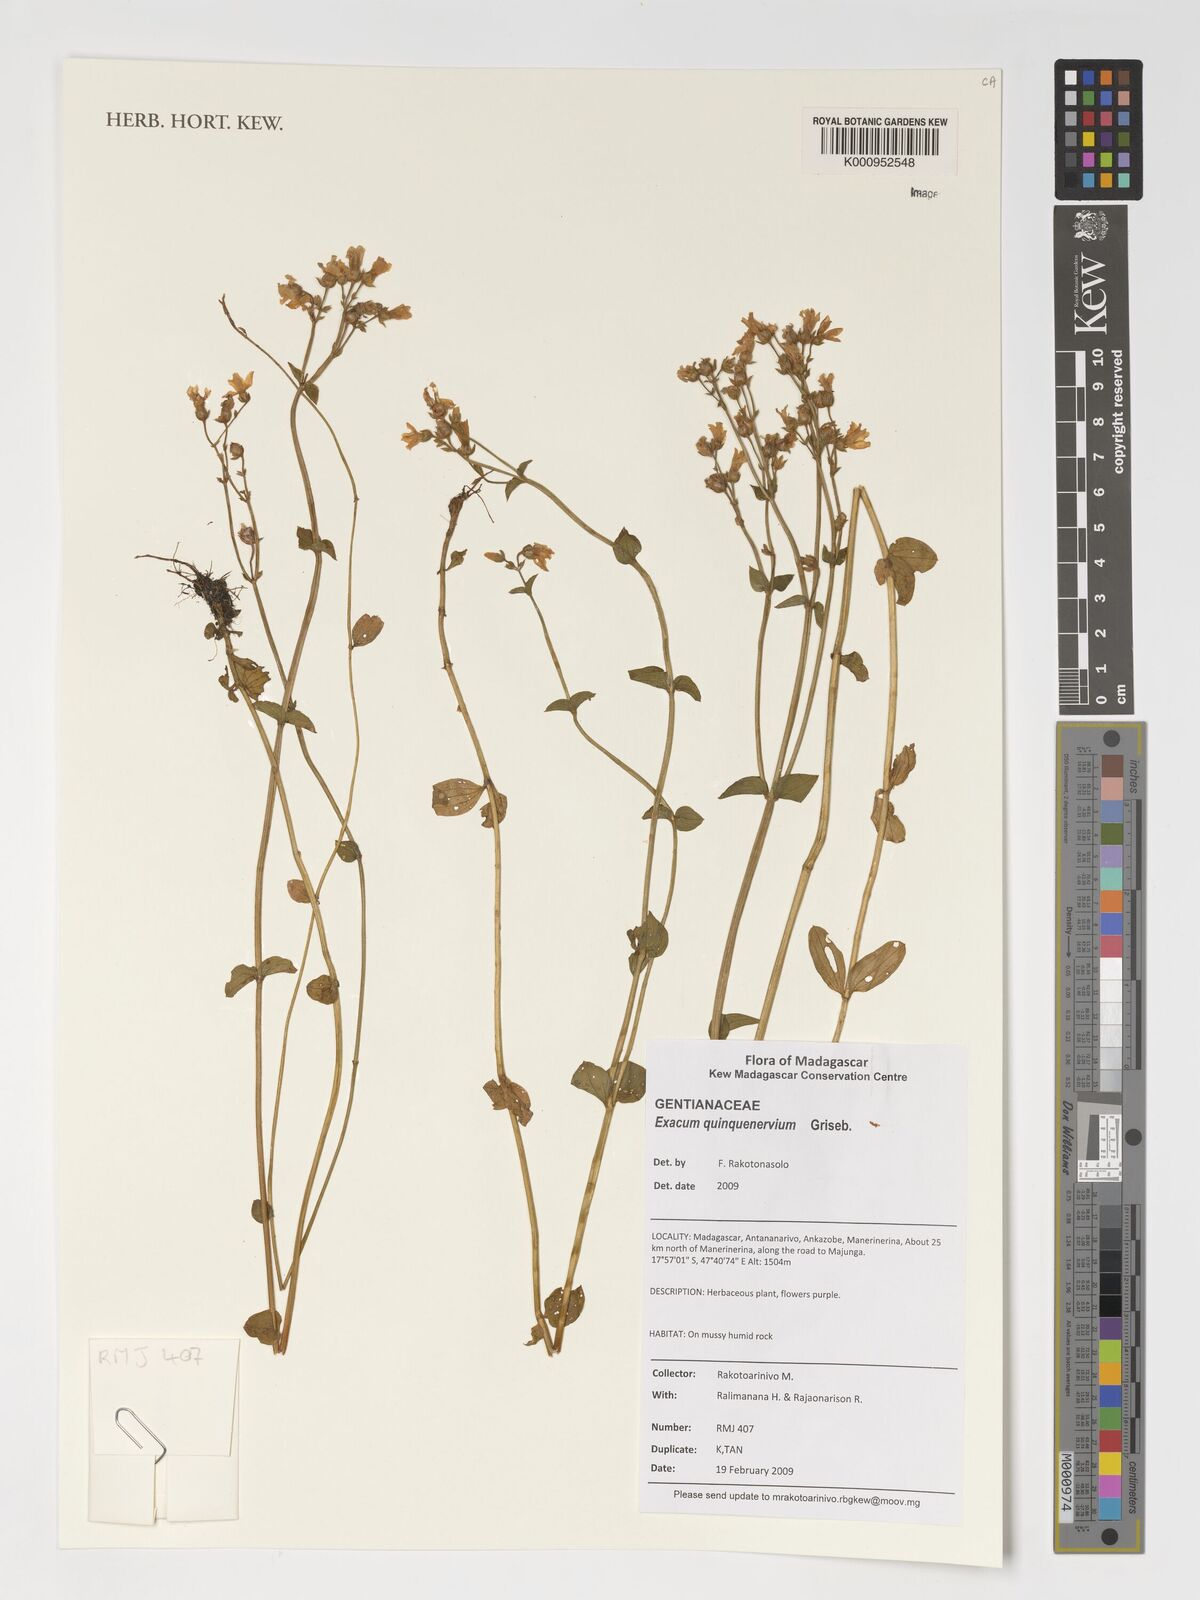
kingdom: Plantae
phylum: Tracheophyta
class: Magnoliopsida
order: Gentianales
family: Gentianaceae
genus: Exacum
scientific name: Exacum quinquenervium
